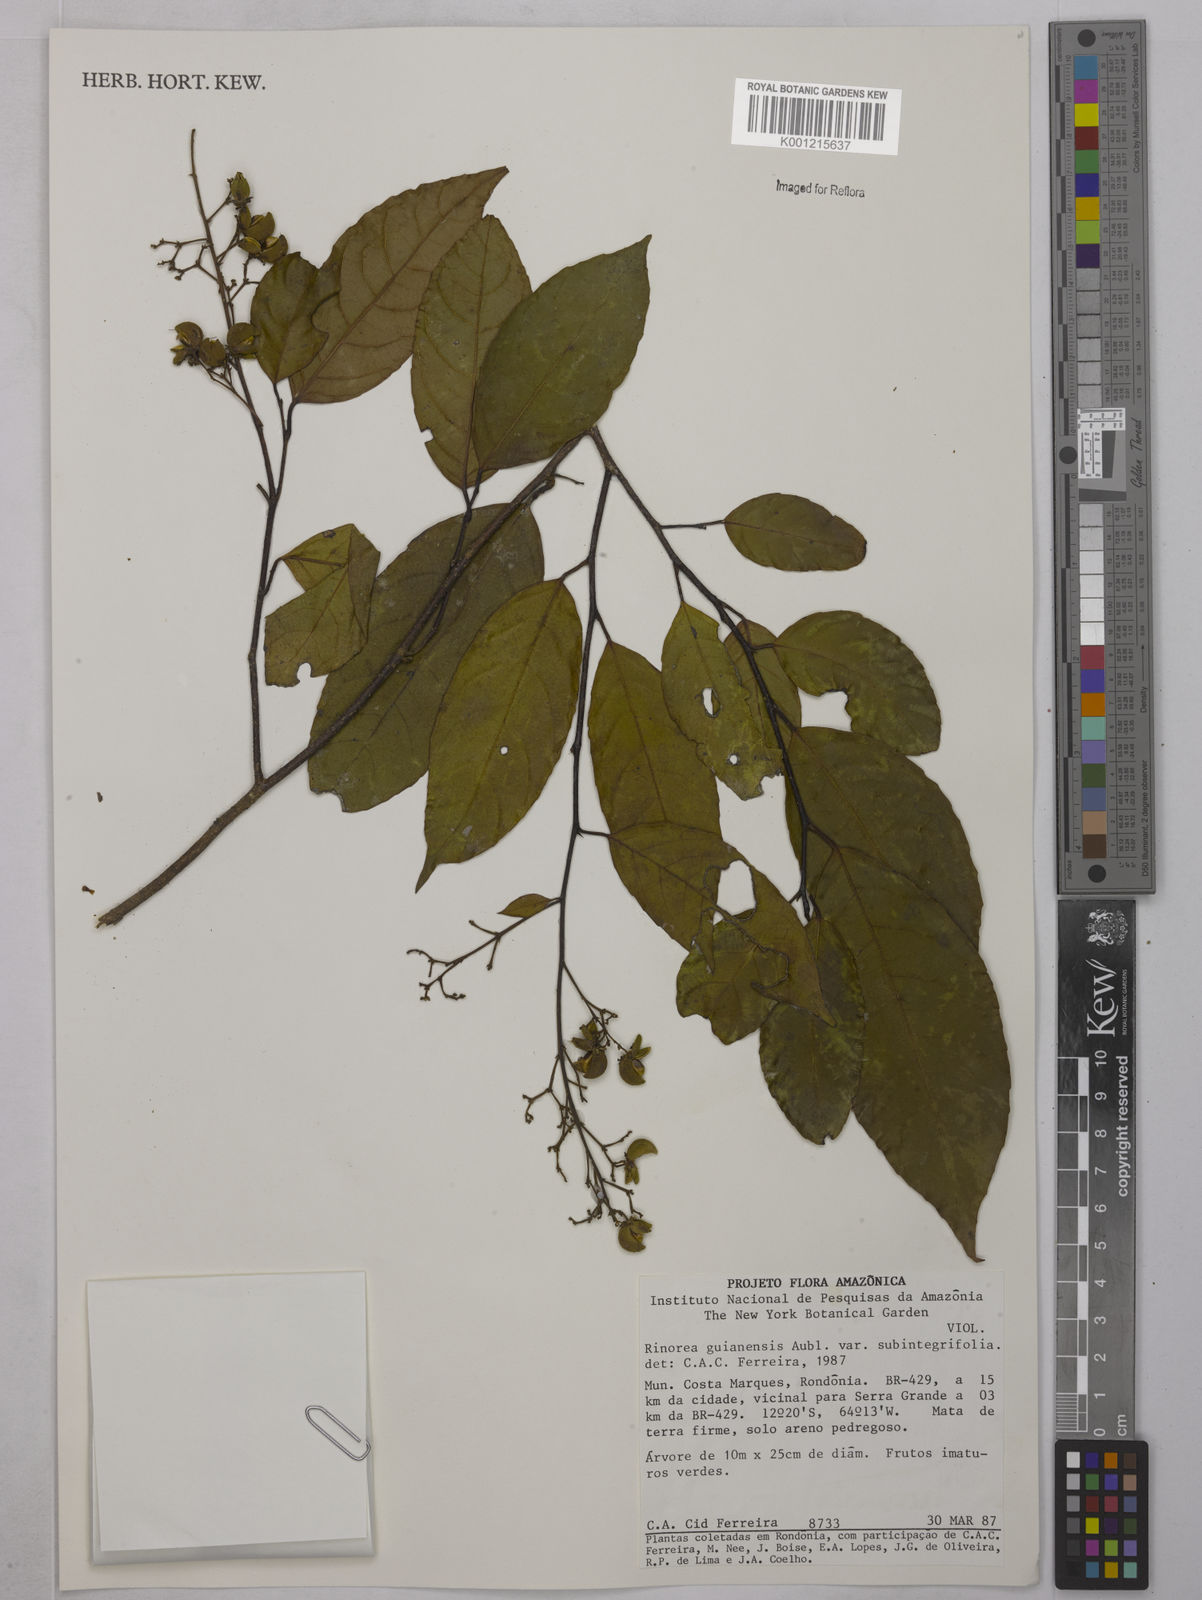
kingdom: Plantae
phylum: Tracheophyta
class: Magnoliopsida
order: Malpighiales
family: Violaceae
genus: Rinorea
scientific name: Rinorea guianensis
